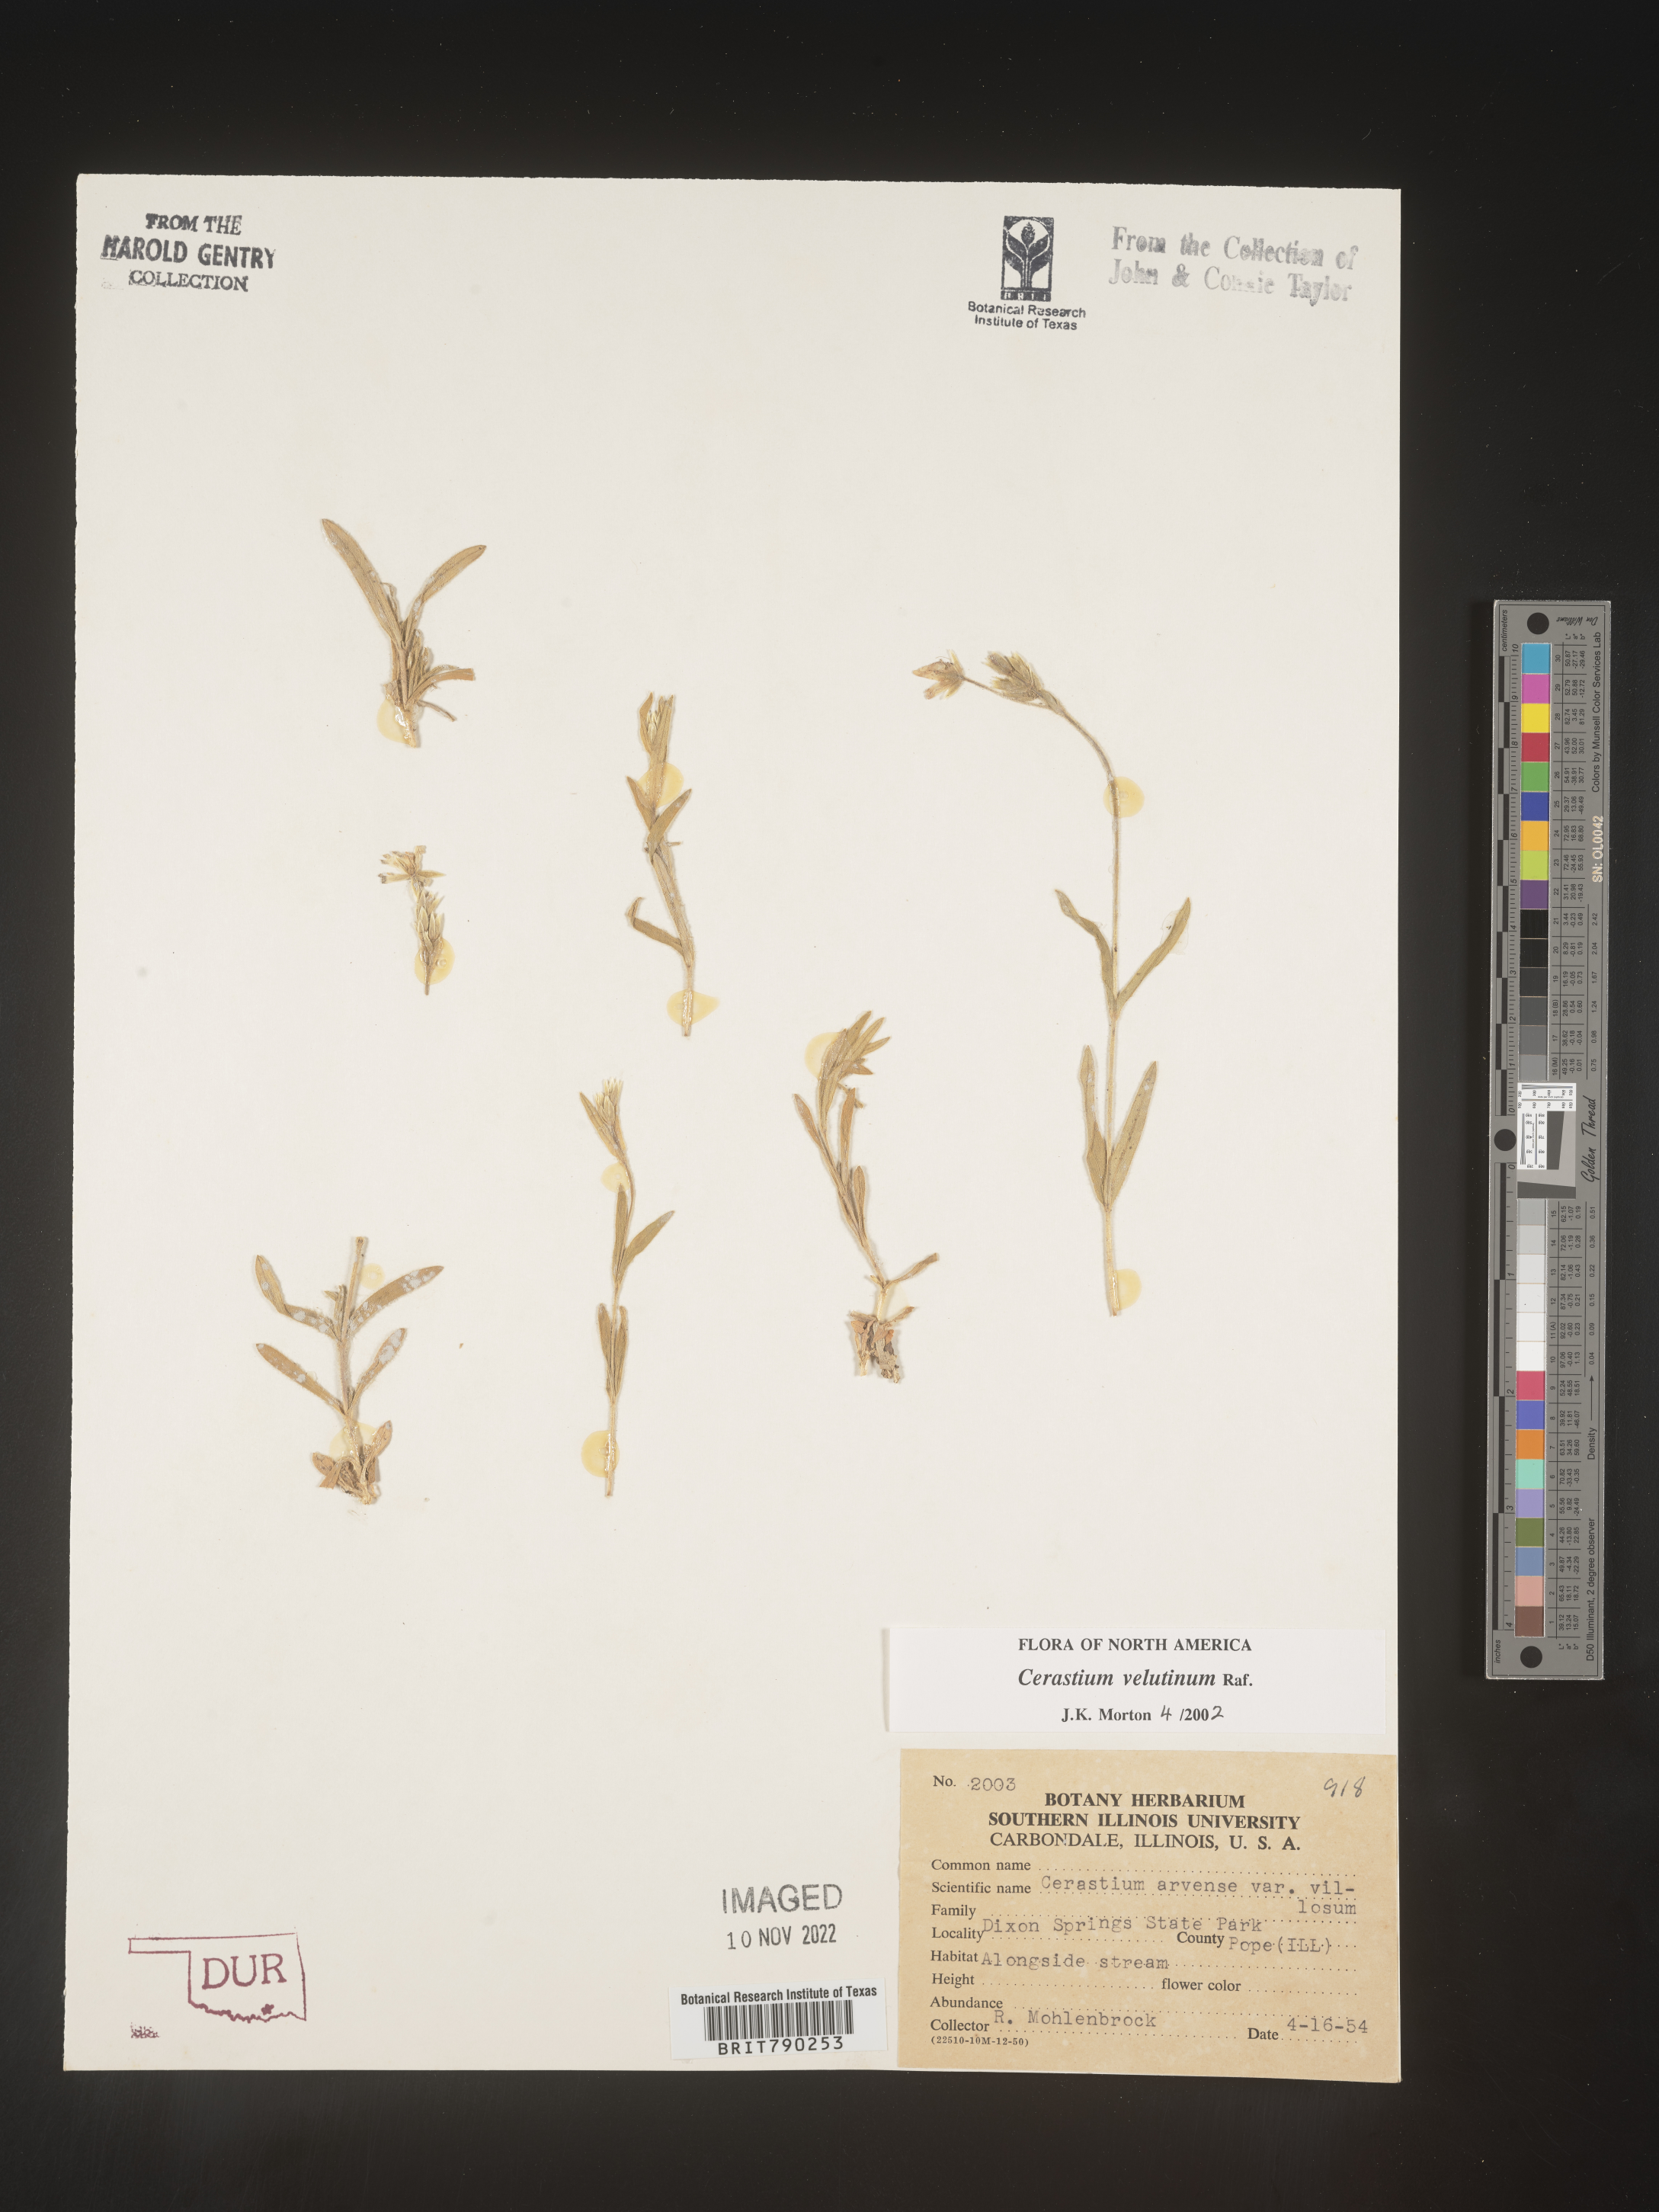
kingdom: Plantae
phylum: Tracheophyta
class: Magnoliopsida
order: Caryophyllales
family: Caryophyllaceae
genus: Cerastium
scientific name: Cerastium velutinum
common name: Barren chickweed
